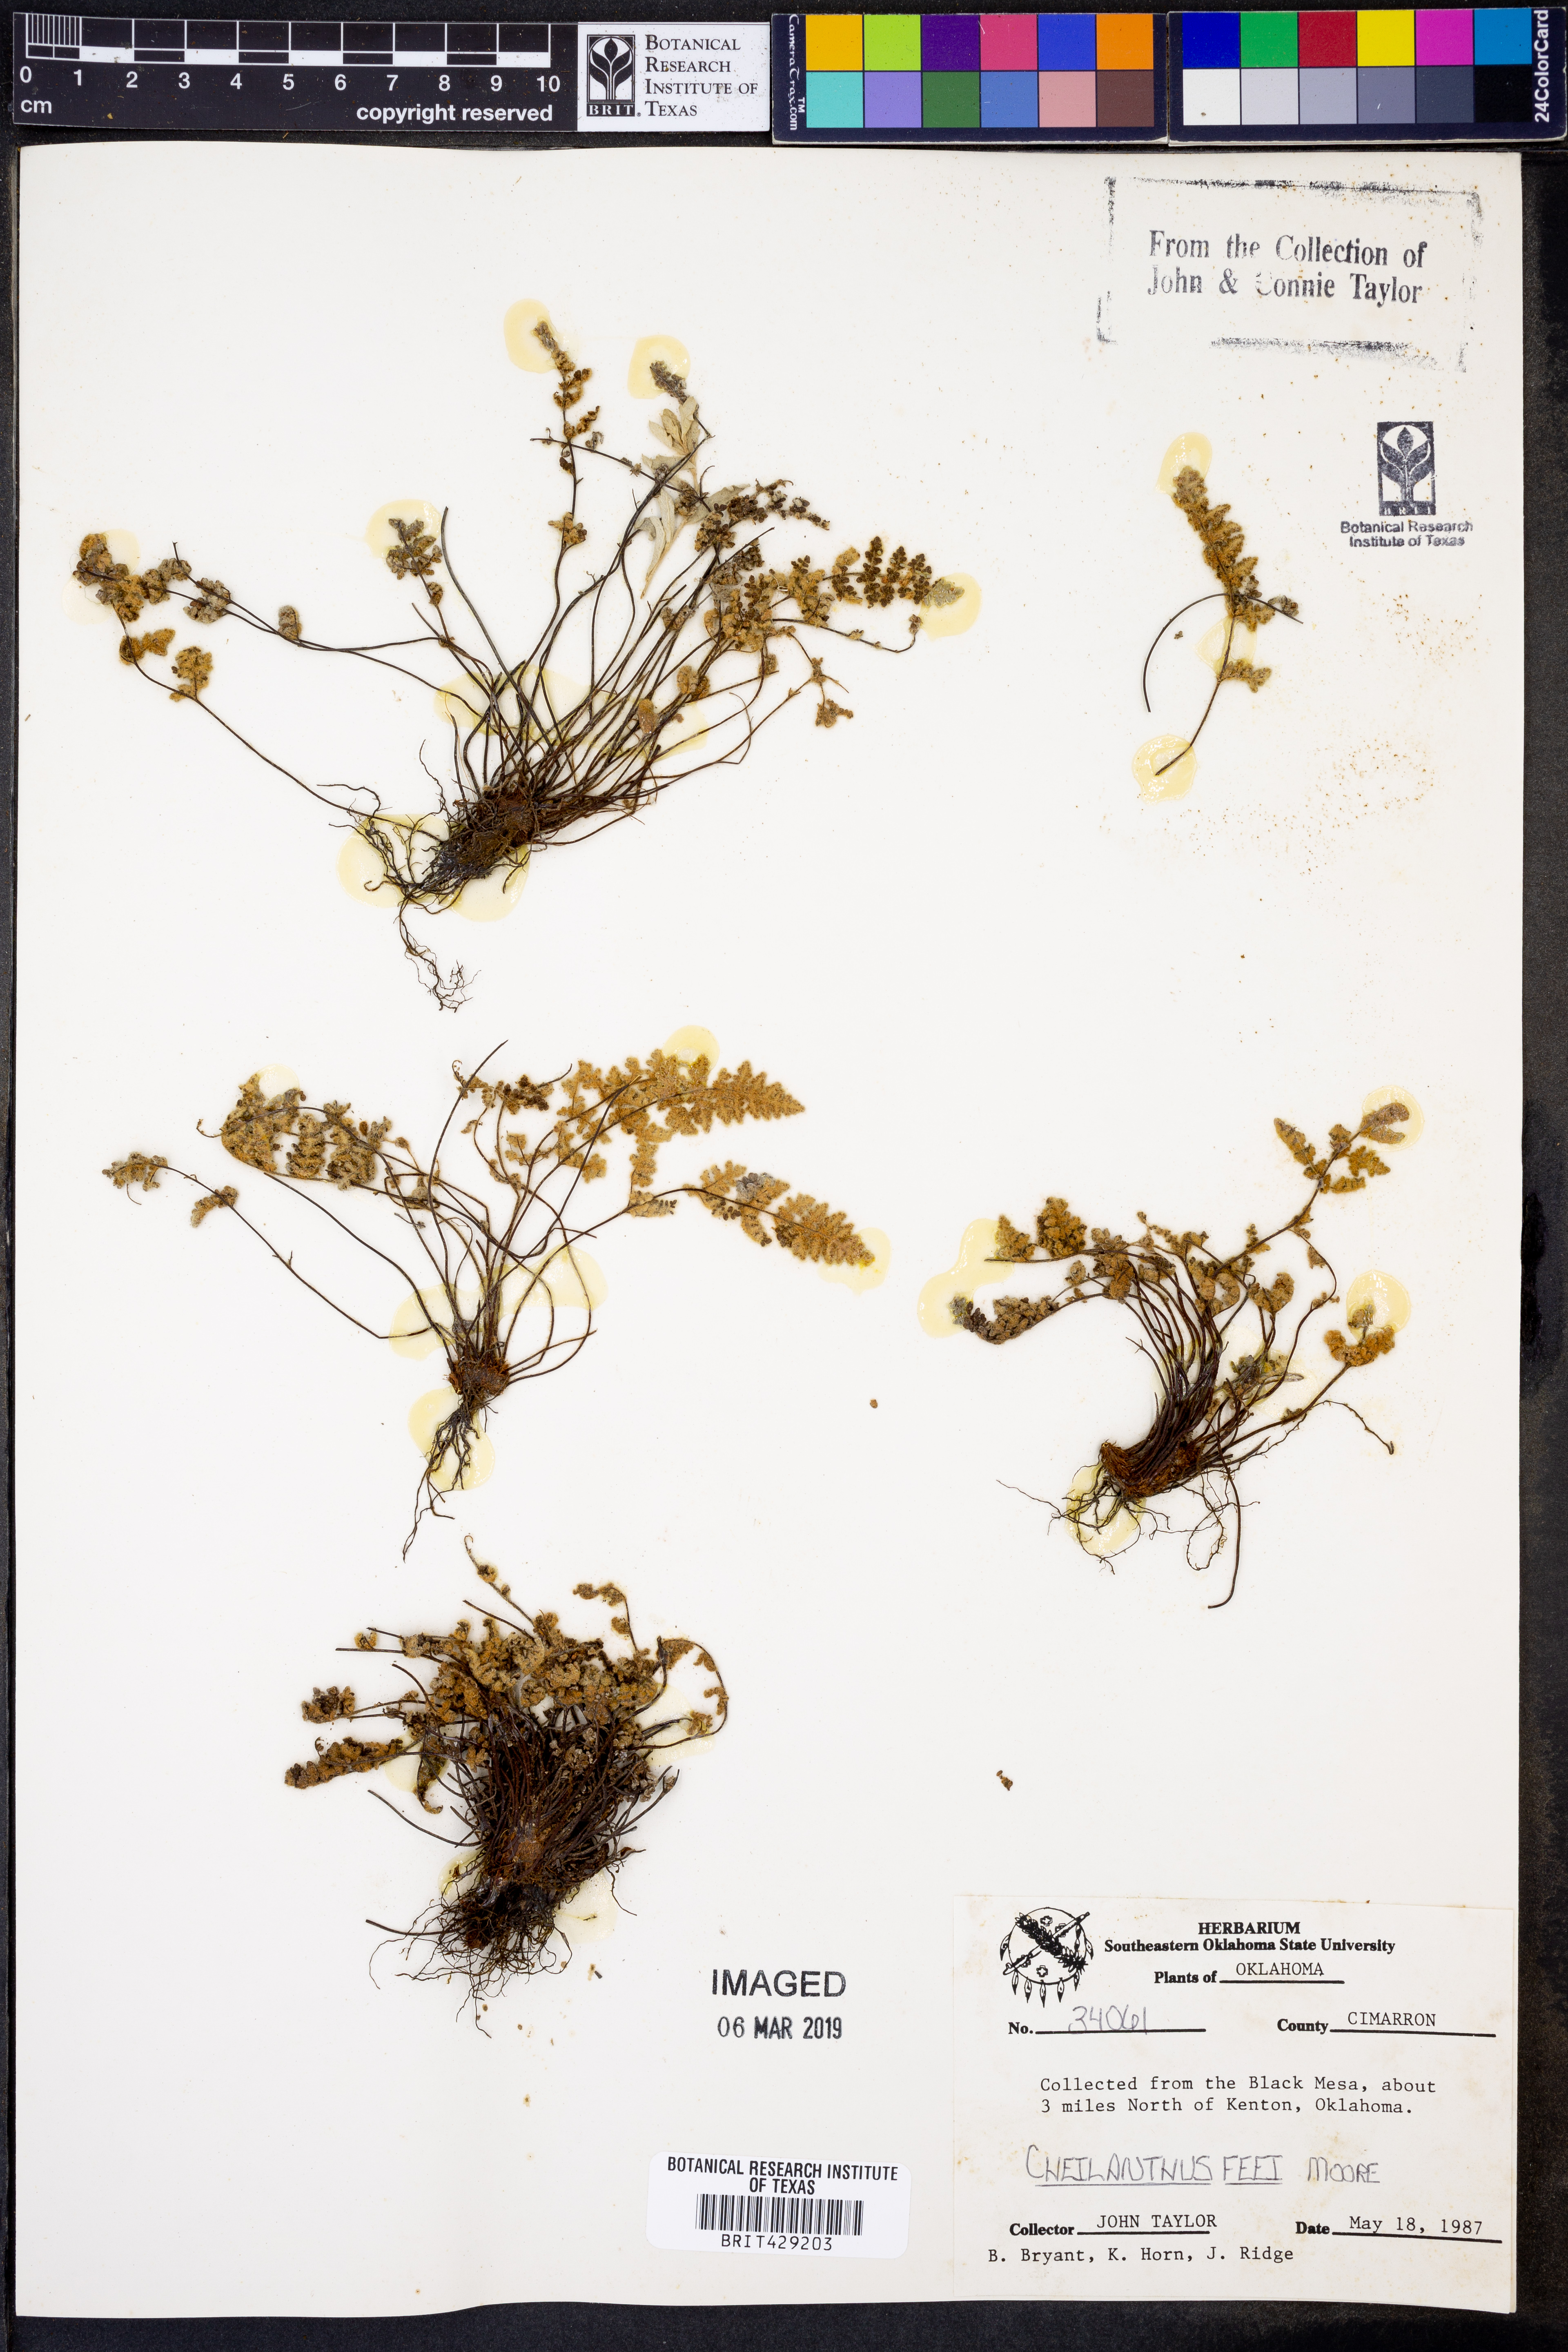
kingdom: Plantae
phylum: Tracheophyta
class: Polypodiopsida
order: Polypodiales
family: Pteridaceae
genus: Myriopteris
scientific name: Myriopteris gracilis
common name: Fee's lip fern
